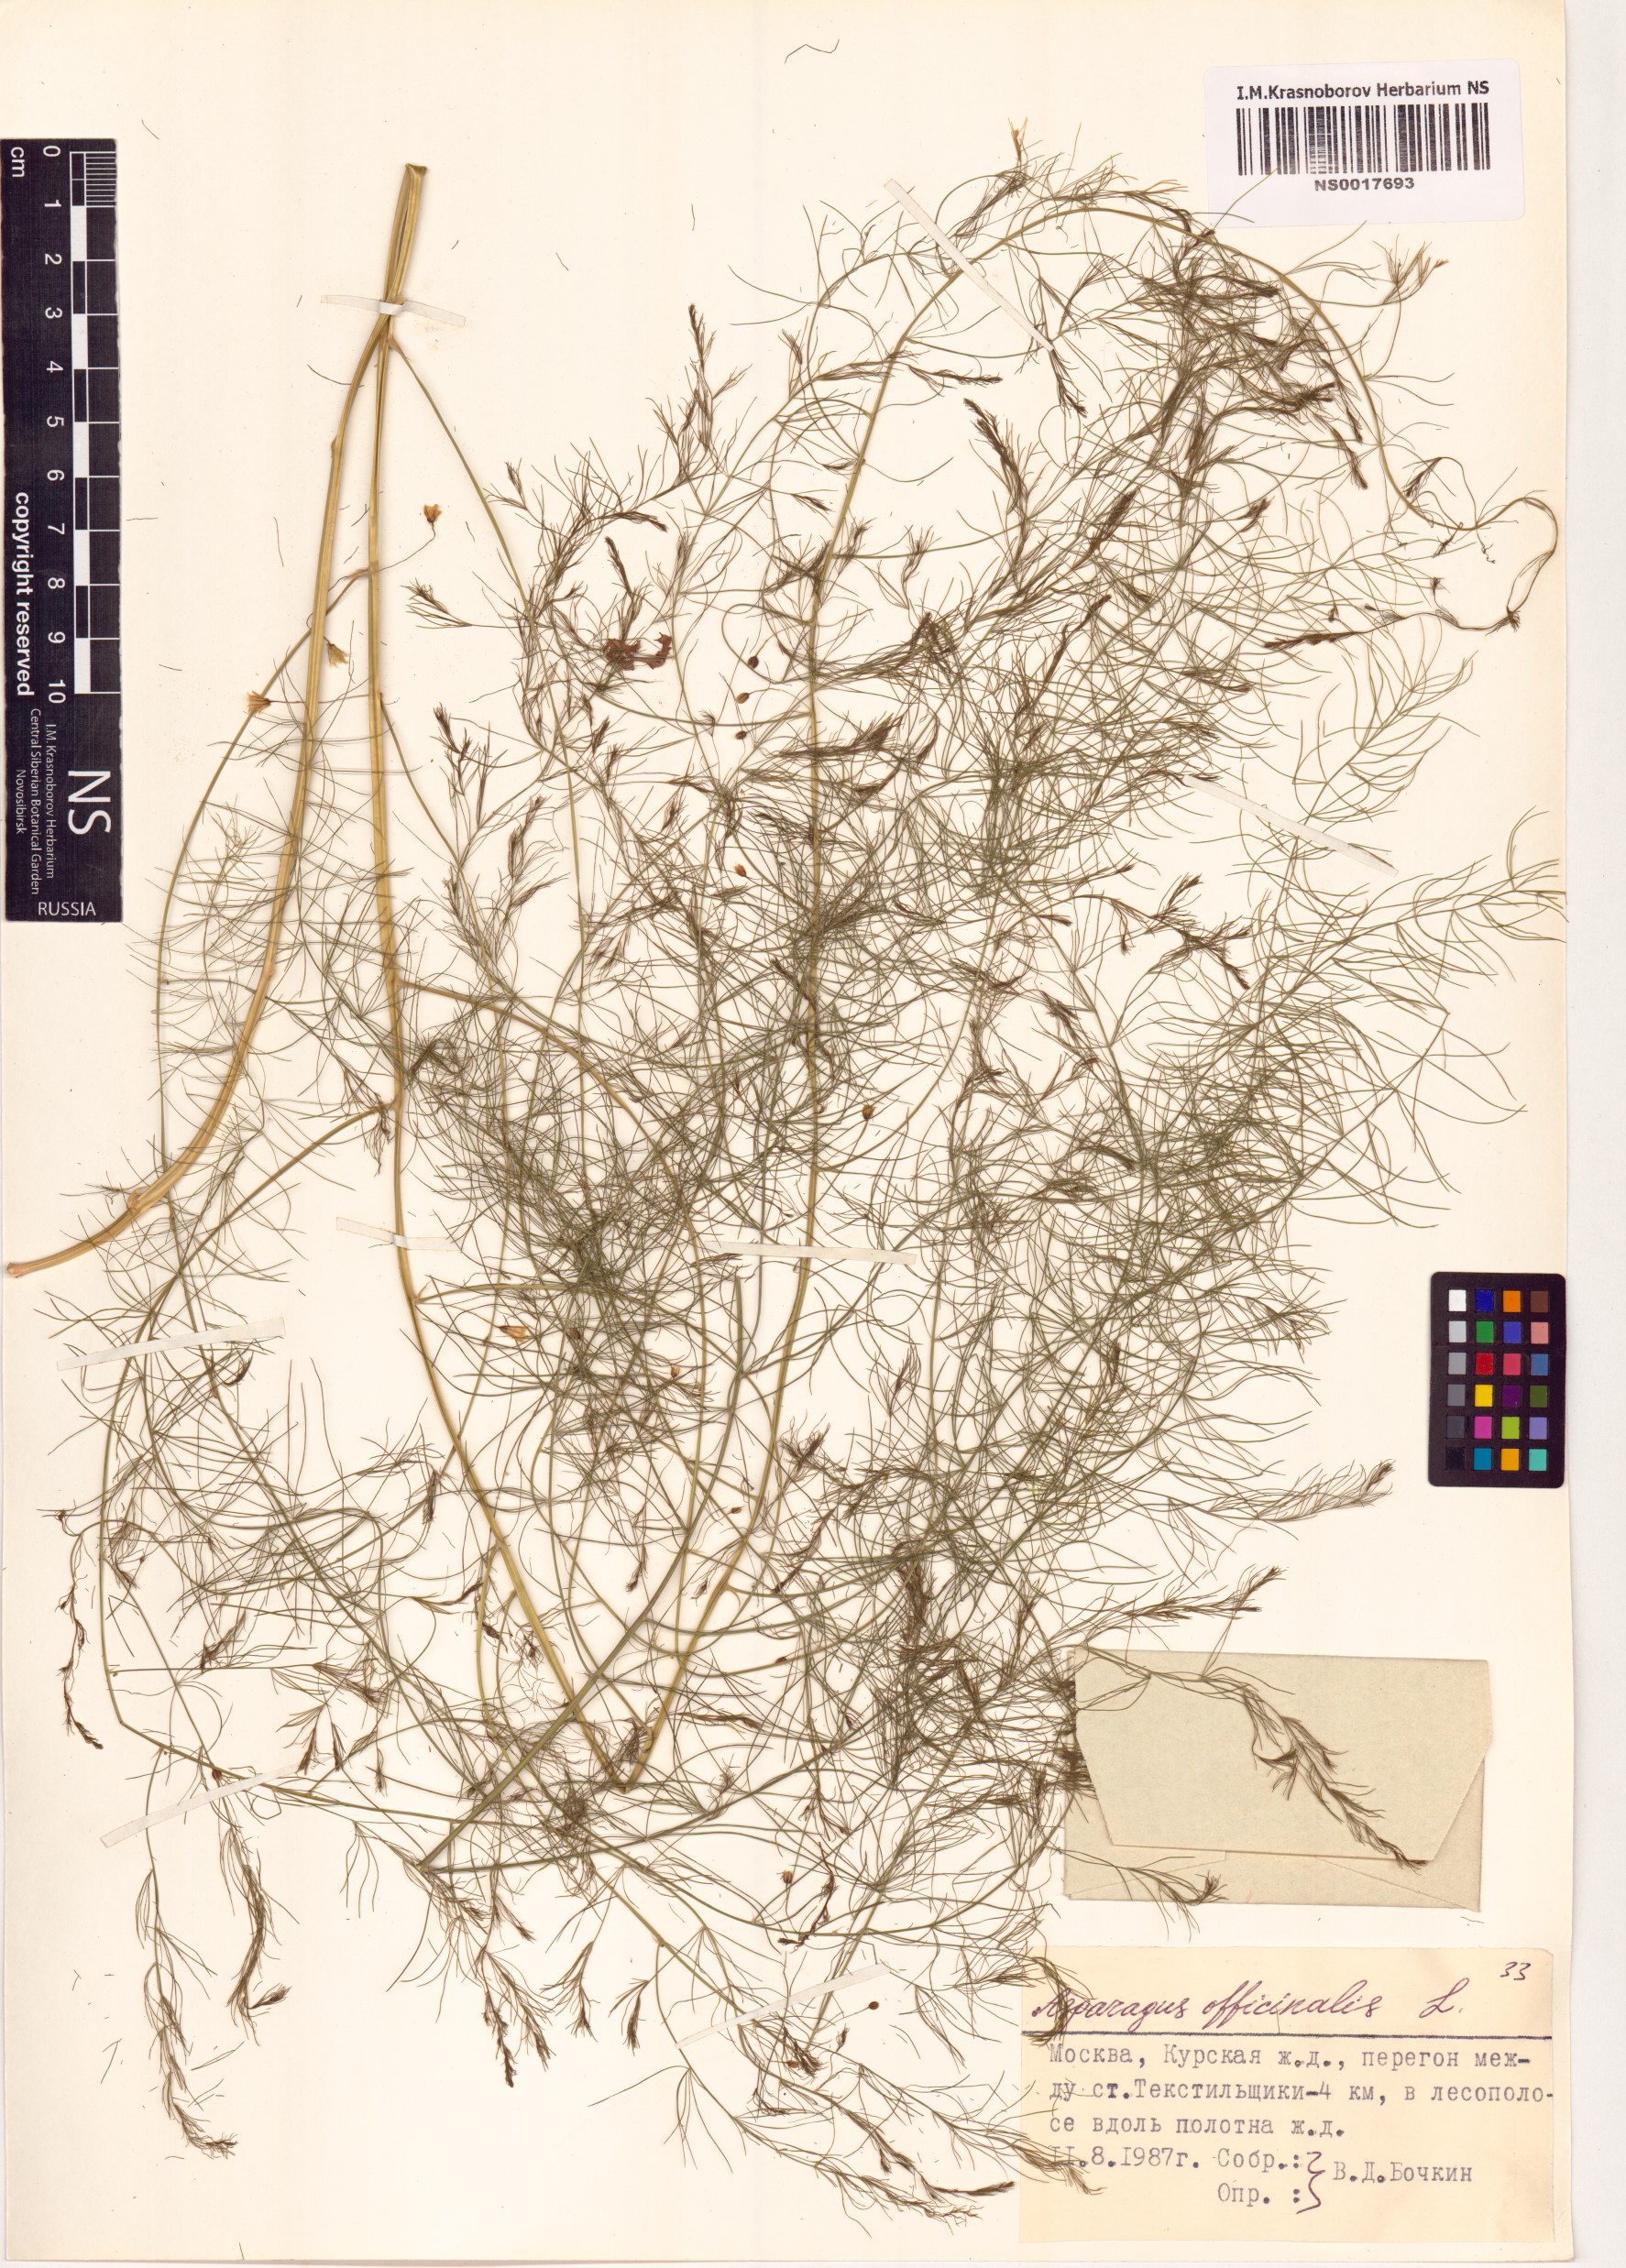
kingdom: Plantae
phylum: Tracheophyta
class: Liliopsida
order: Asparagales
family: Asparagaceae
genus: Asparagus
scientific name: Asparagus officinalis
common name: Garden asparagus
